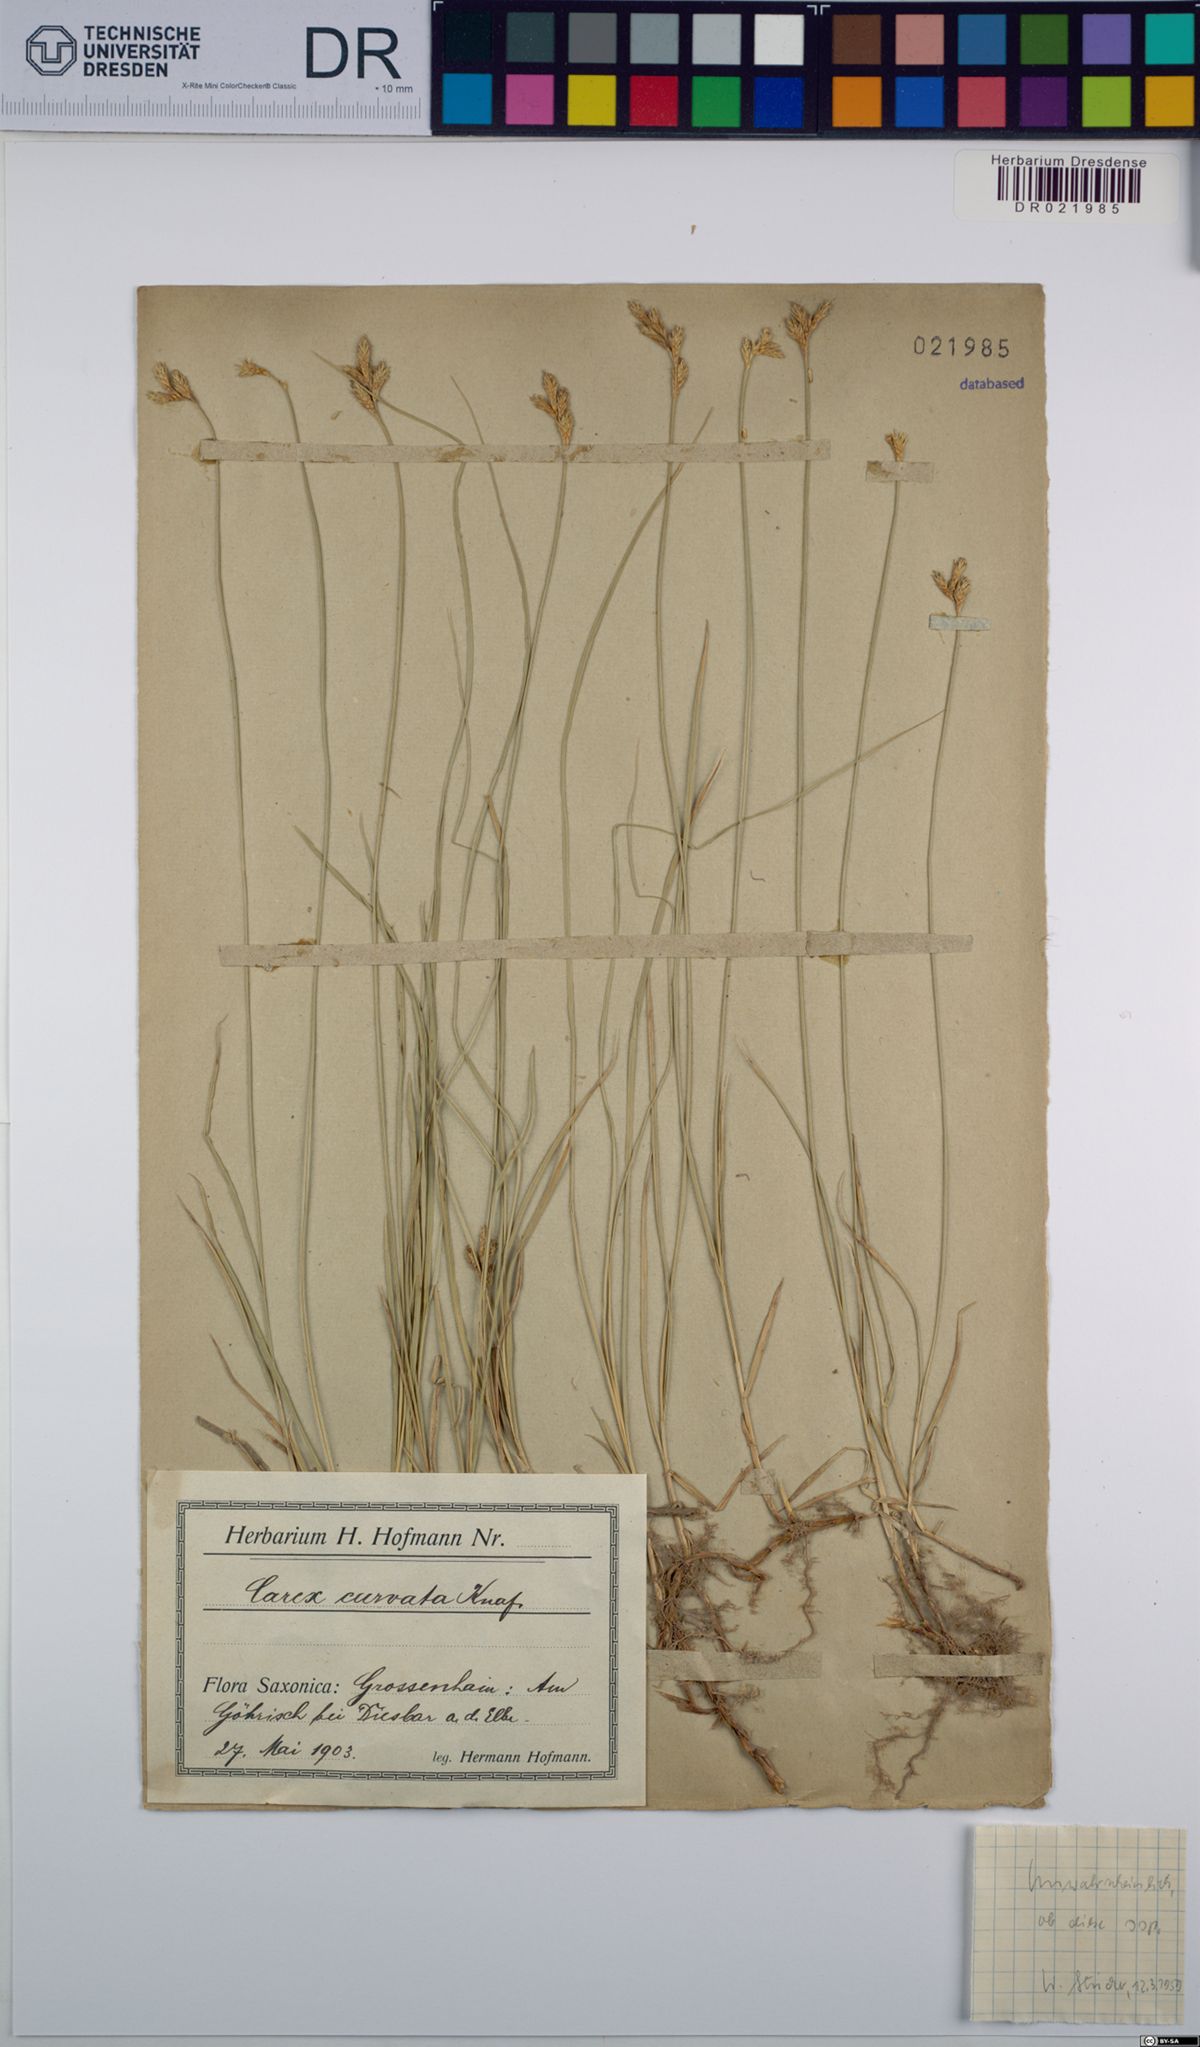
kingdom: Plantae
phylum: Tracheophyta
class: Liliopsida
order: Poales
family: Cyperaceae
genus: Carex
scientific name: Carex curvata
